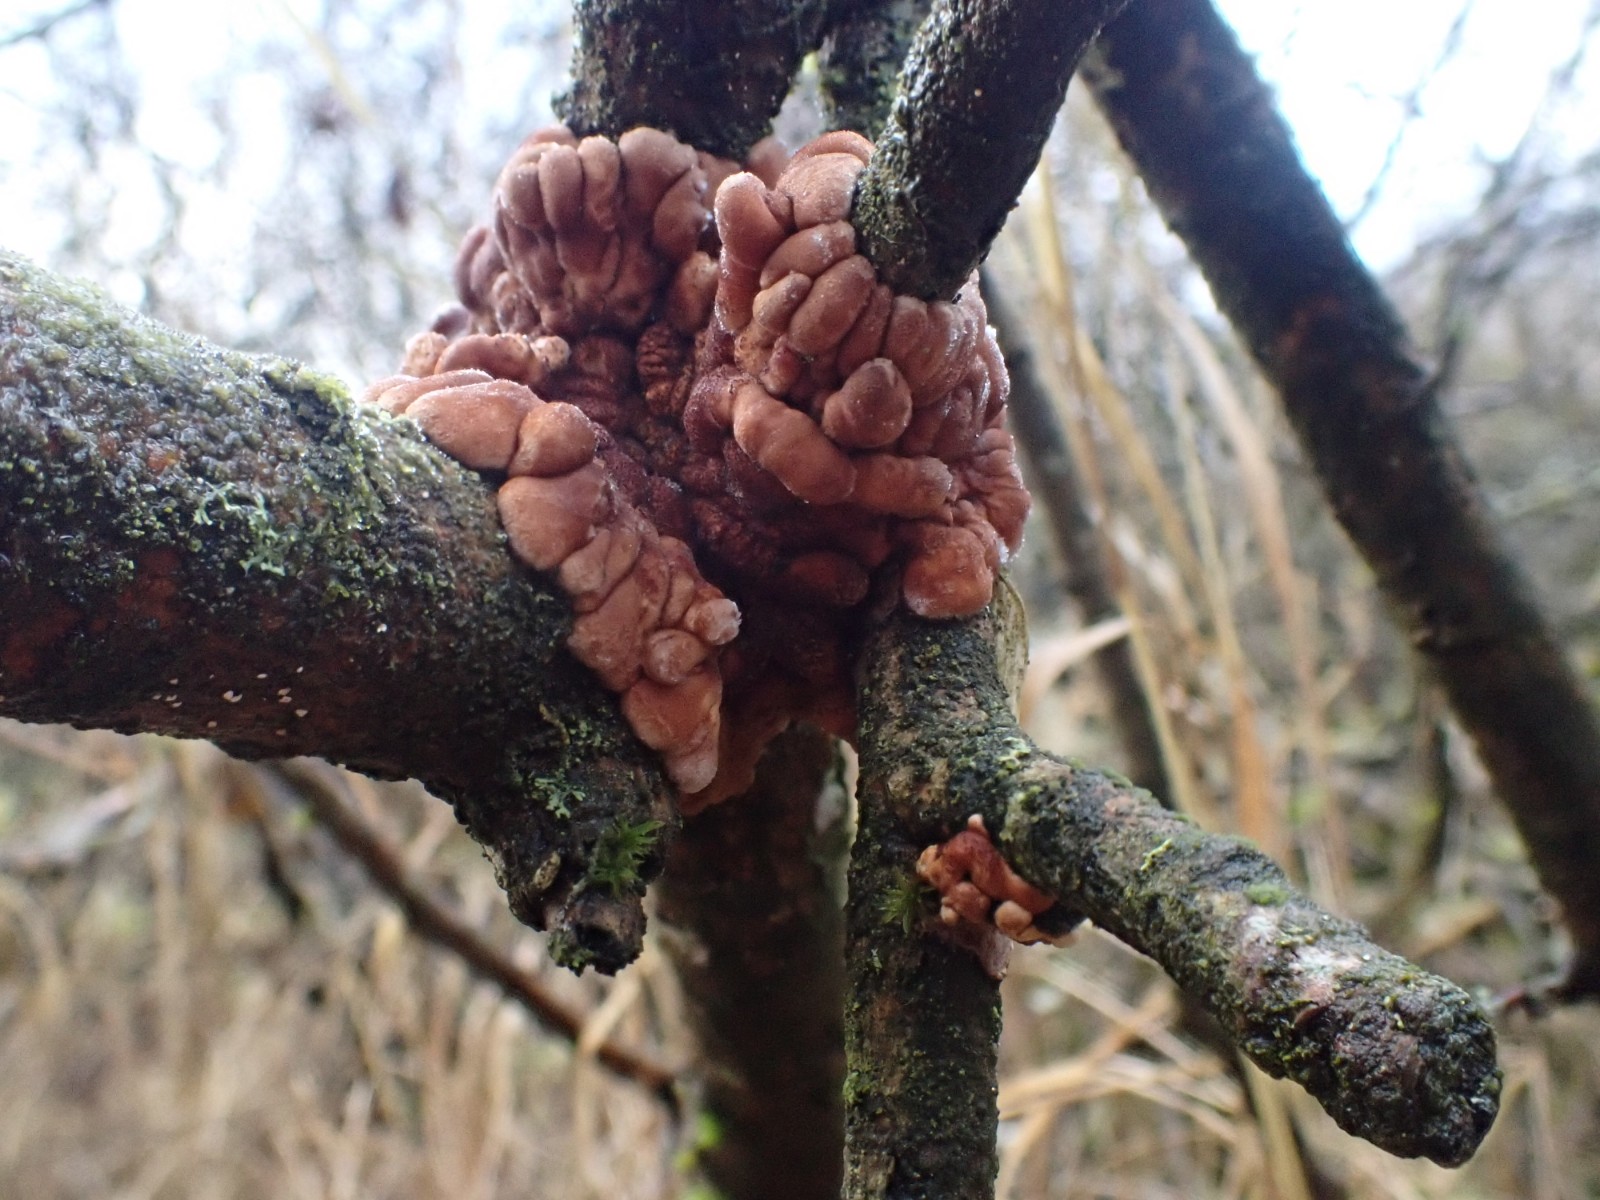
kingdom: Fungi
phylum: Ascomycota
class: Sordariomycetes
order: Hypocreales
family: Hypocreaceae
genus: Hypocreopsis
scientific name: Hypocreopsis lichenoides
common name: pilfinger
